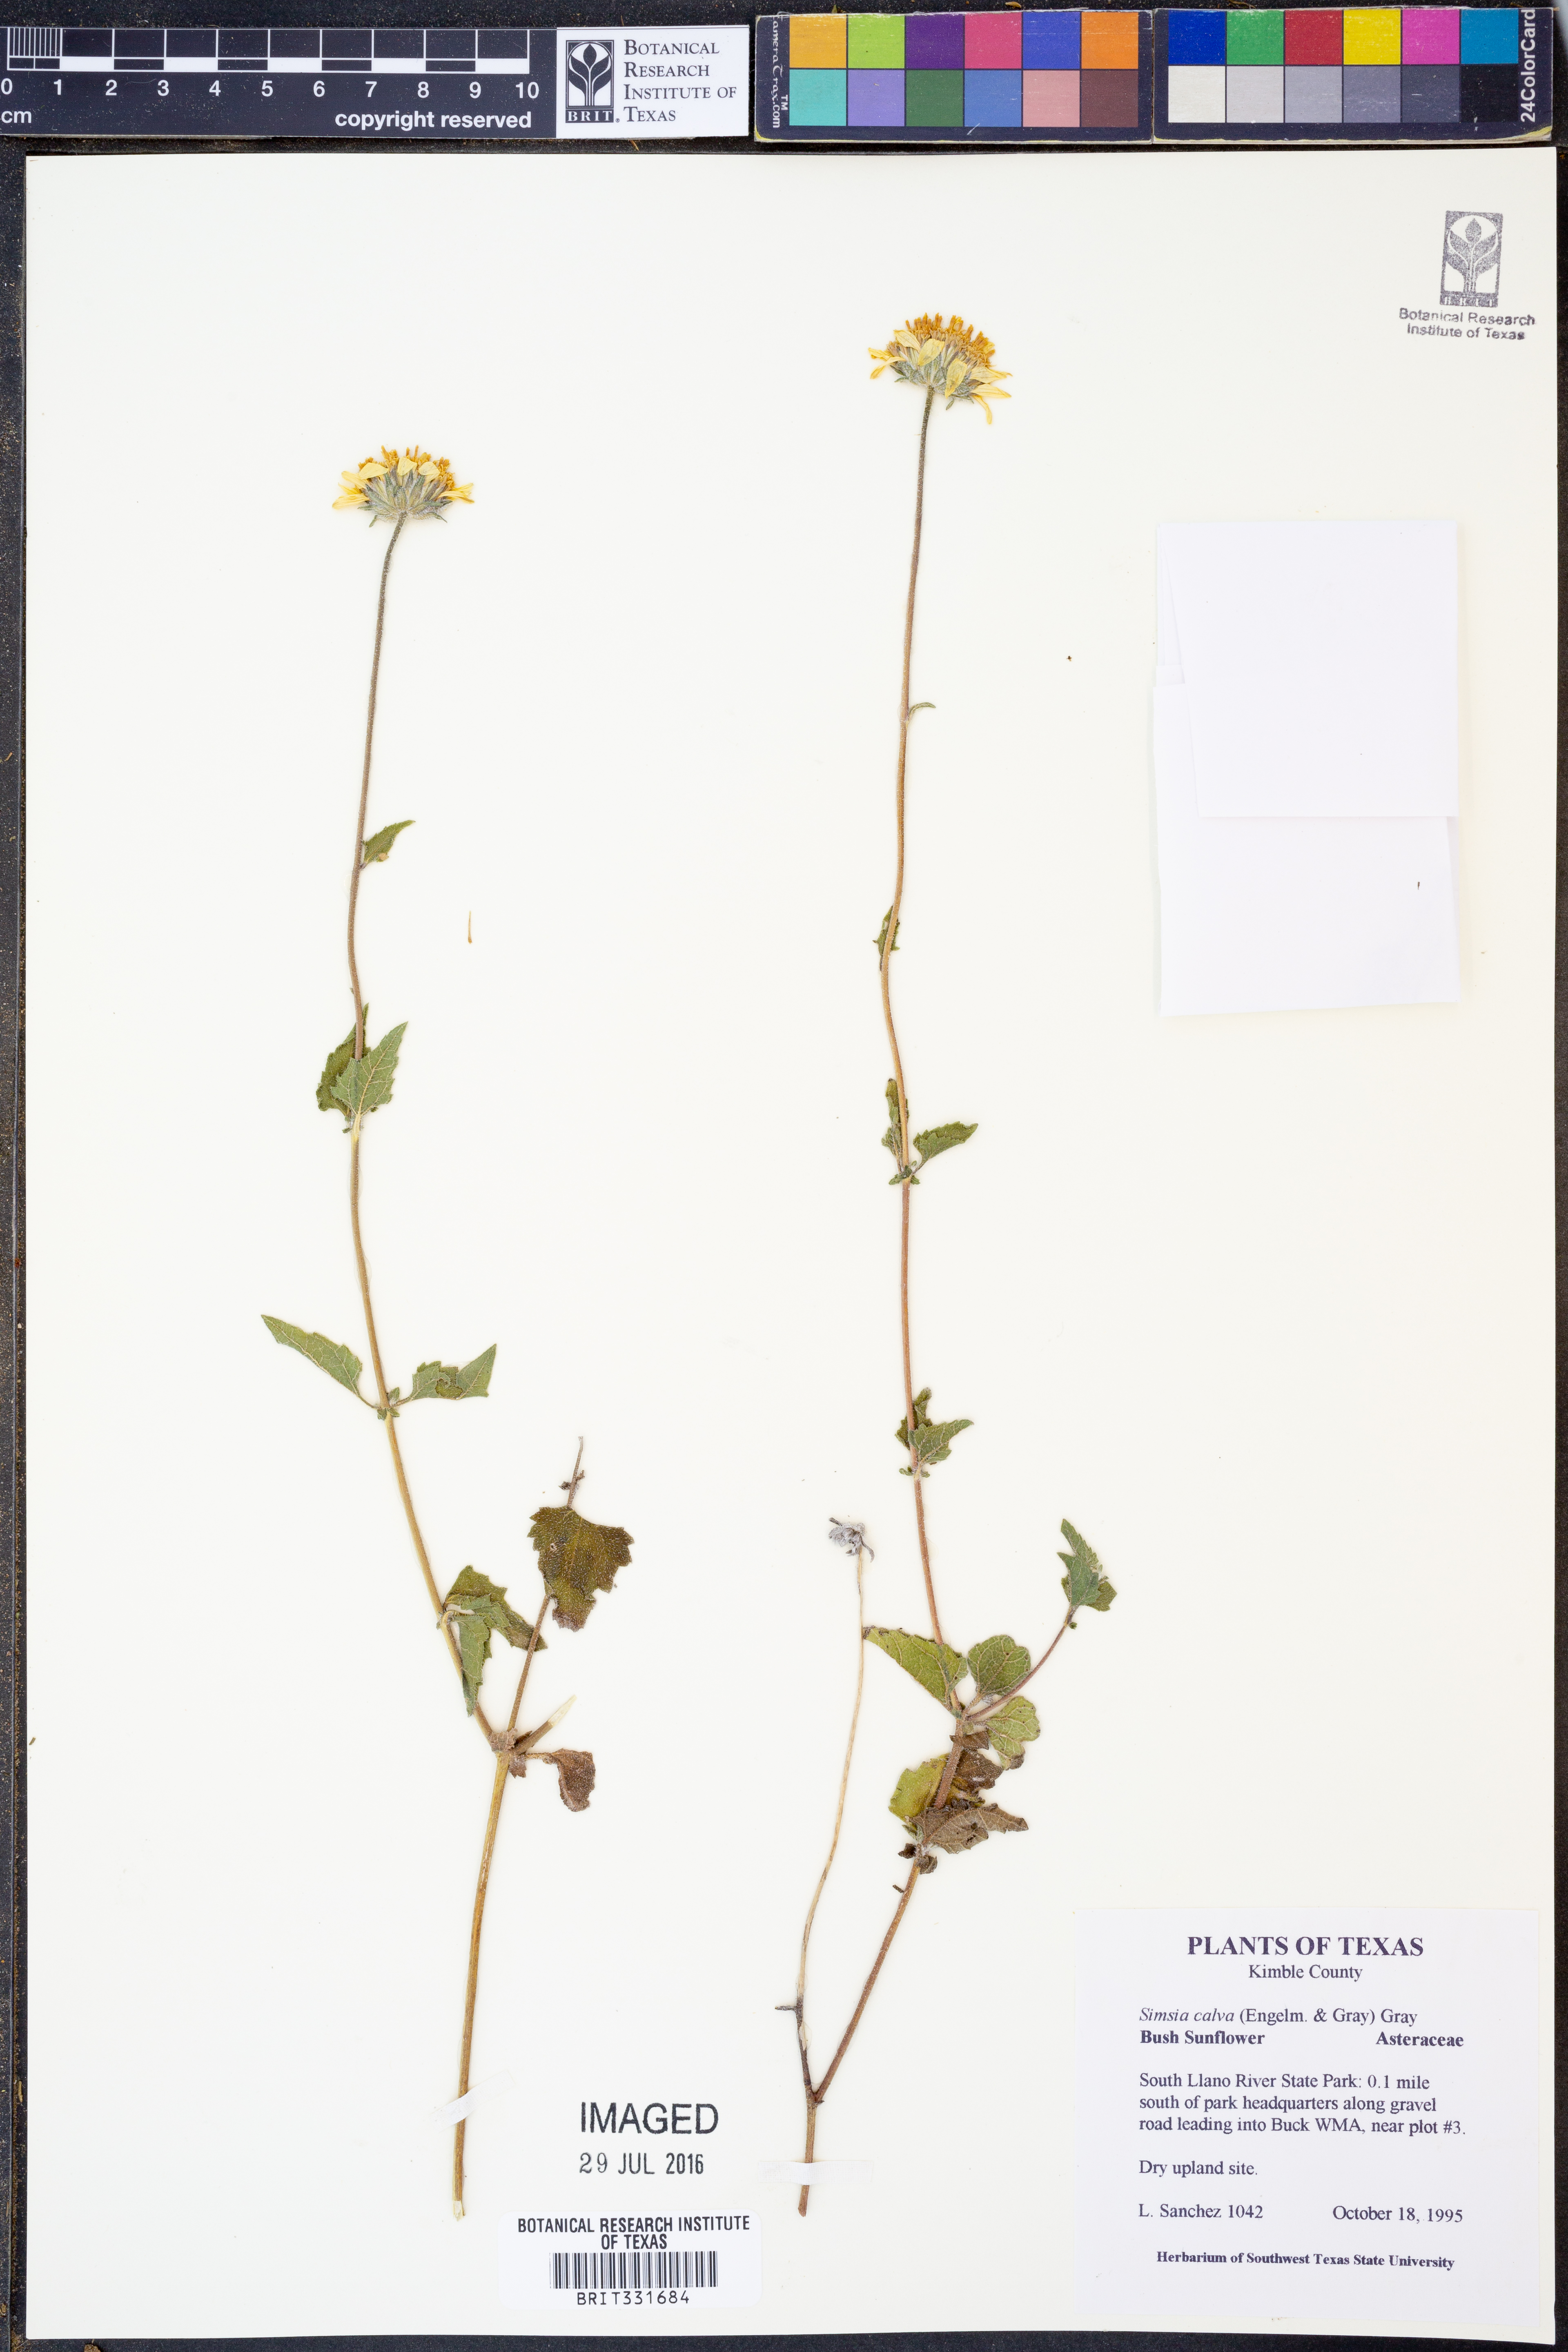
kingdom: Plantae
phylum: Tracheophyta
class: Magnoliopsida
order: Asterales
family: Asteraceae
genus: Simsia
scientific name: Simsia calva
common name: Awnless bush-sunflower
